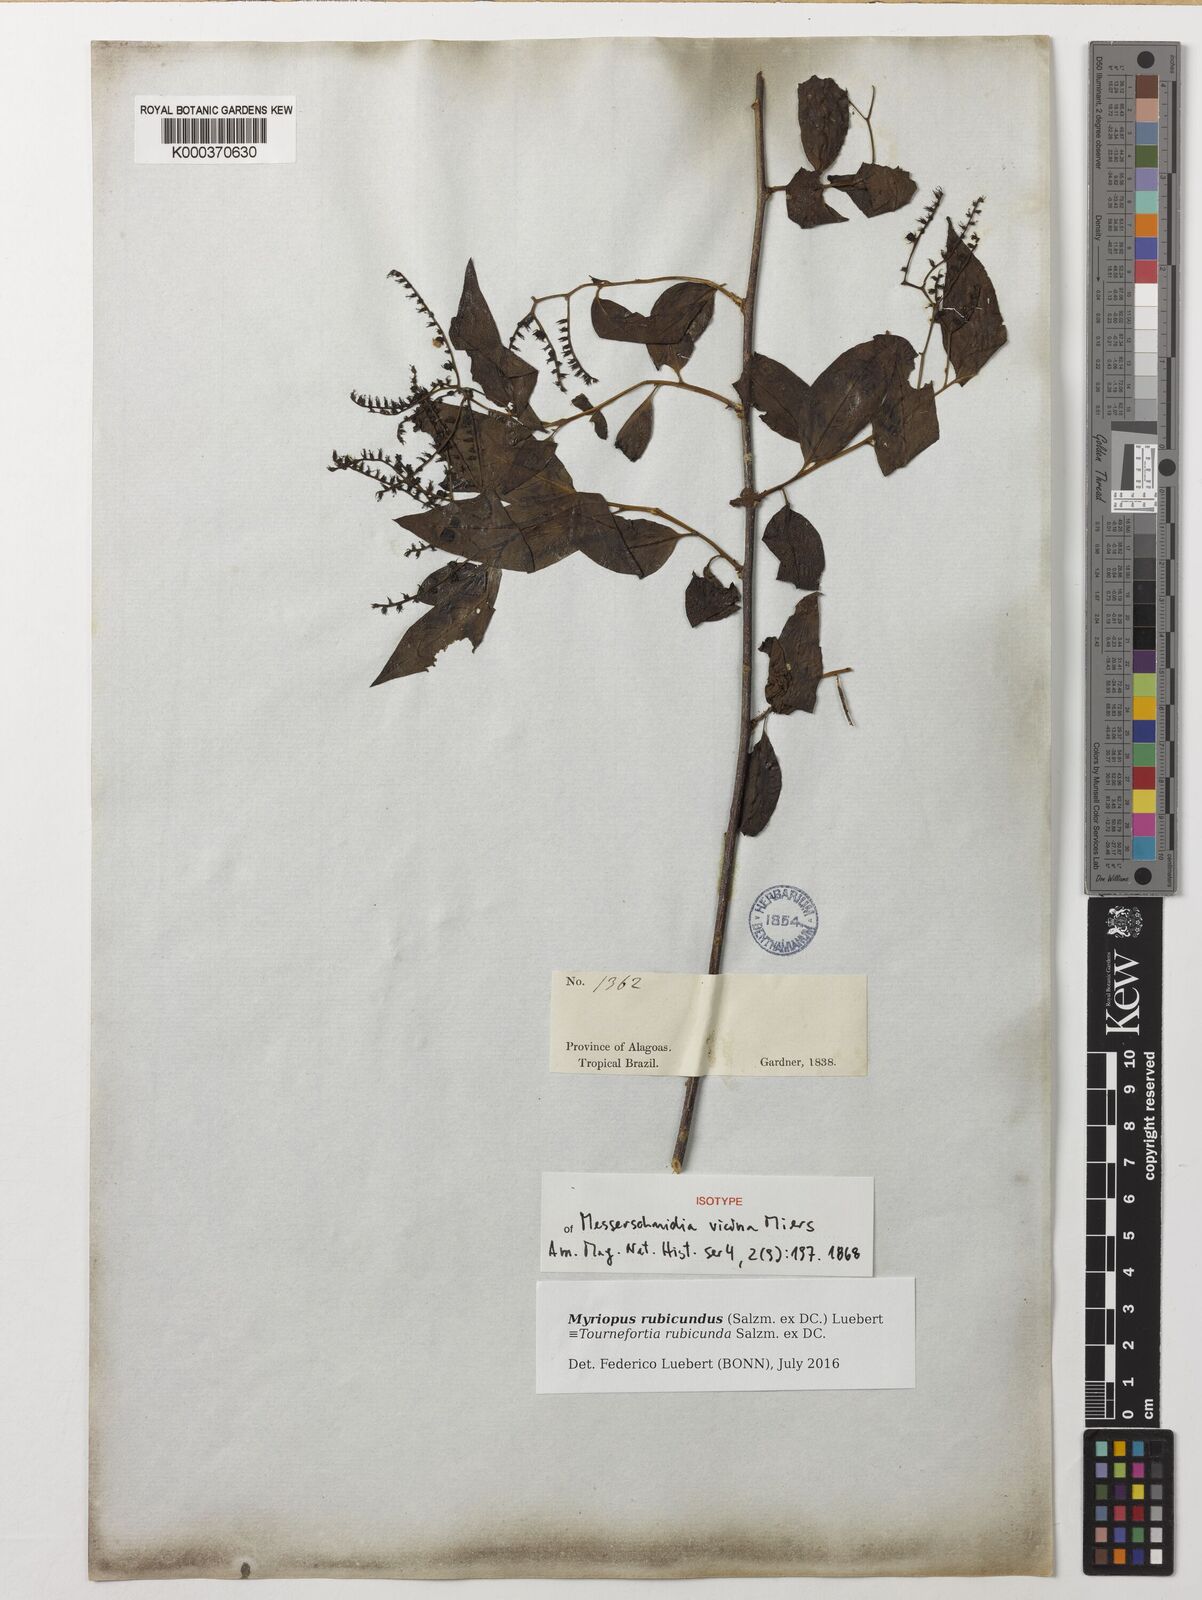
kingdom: Plantae
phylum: Tracheophyta
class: Magnoliopsida
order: Boraginales
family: Heliotropiaceae
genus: Myriopus
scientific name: Myriopus rubicundus
